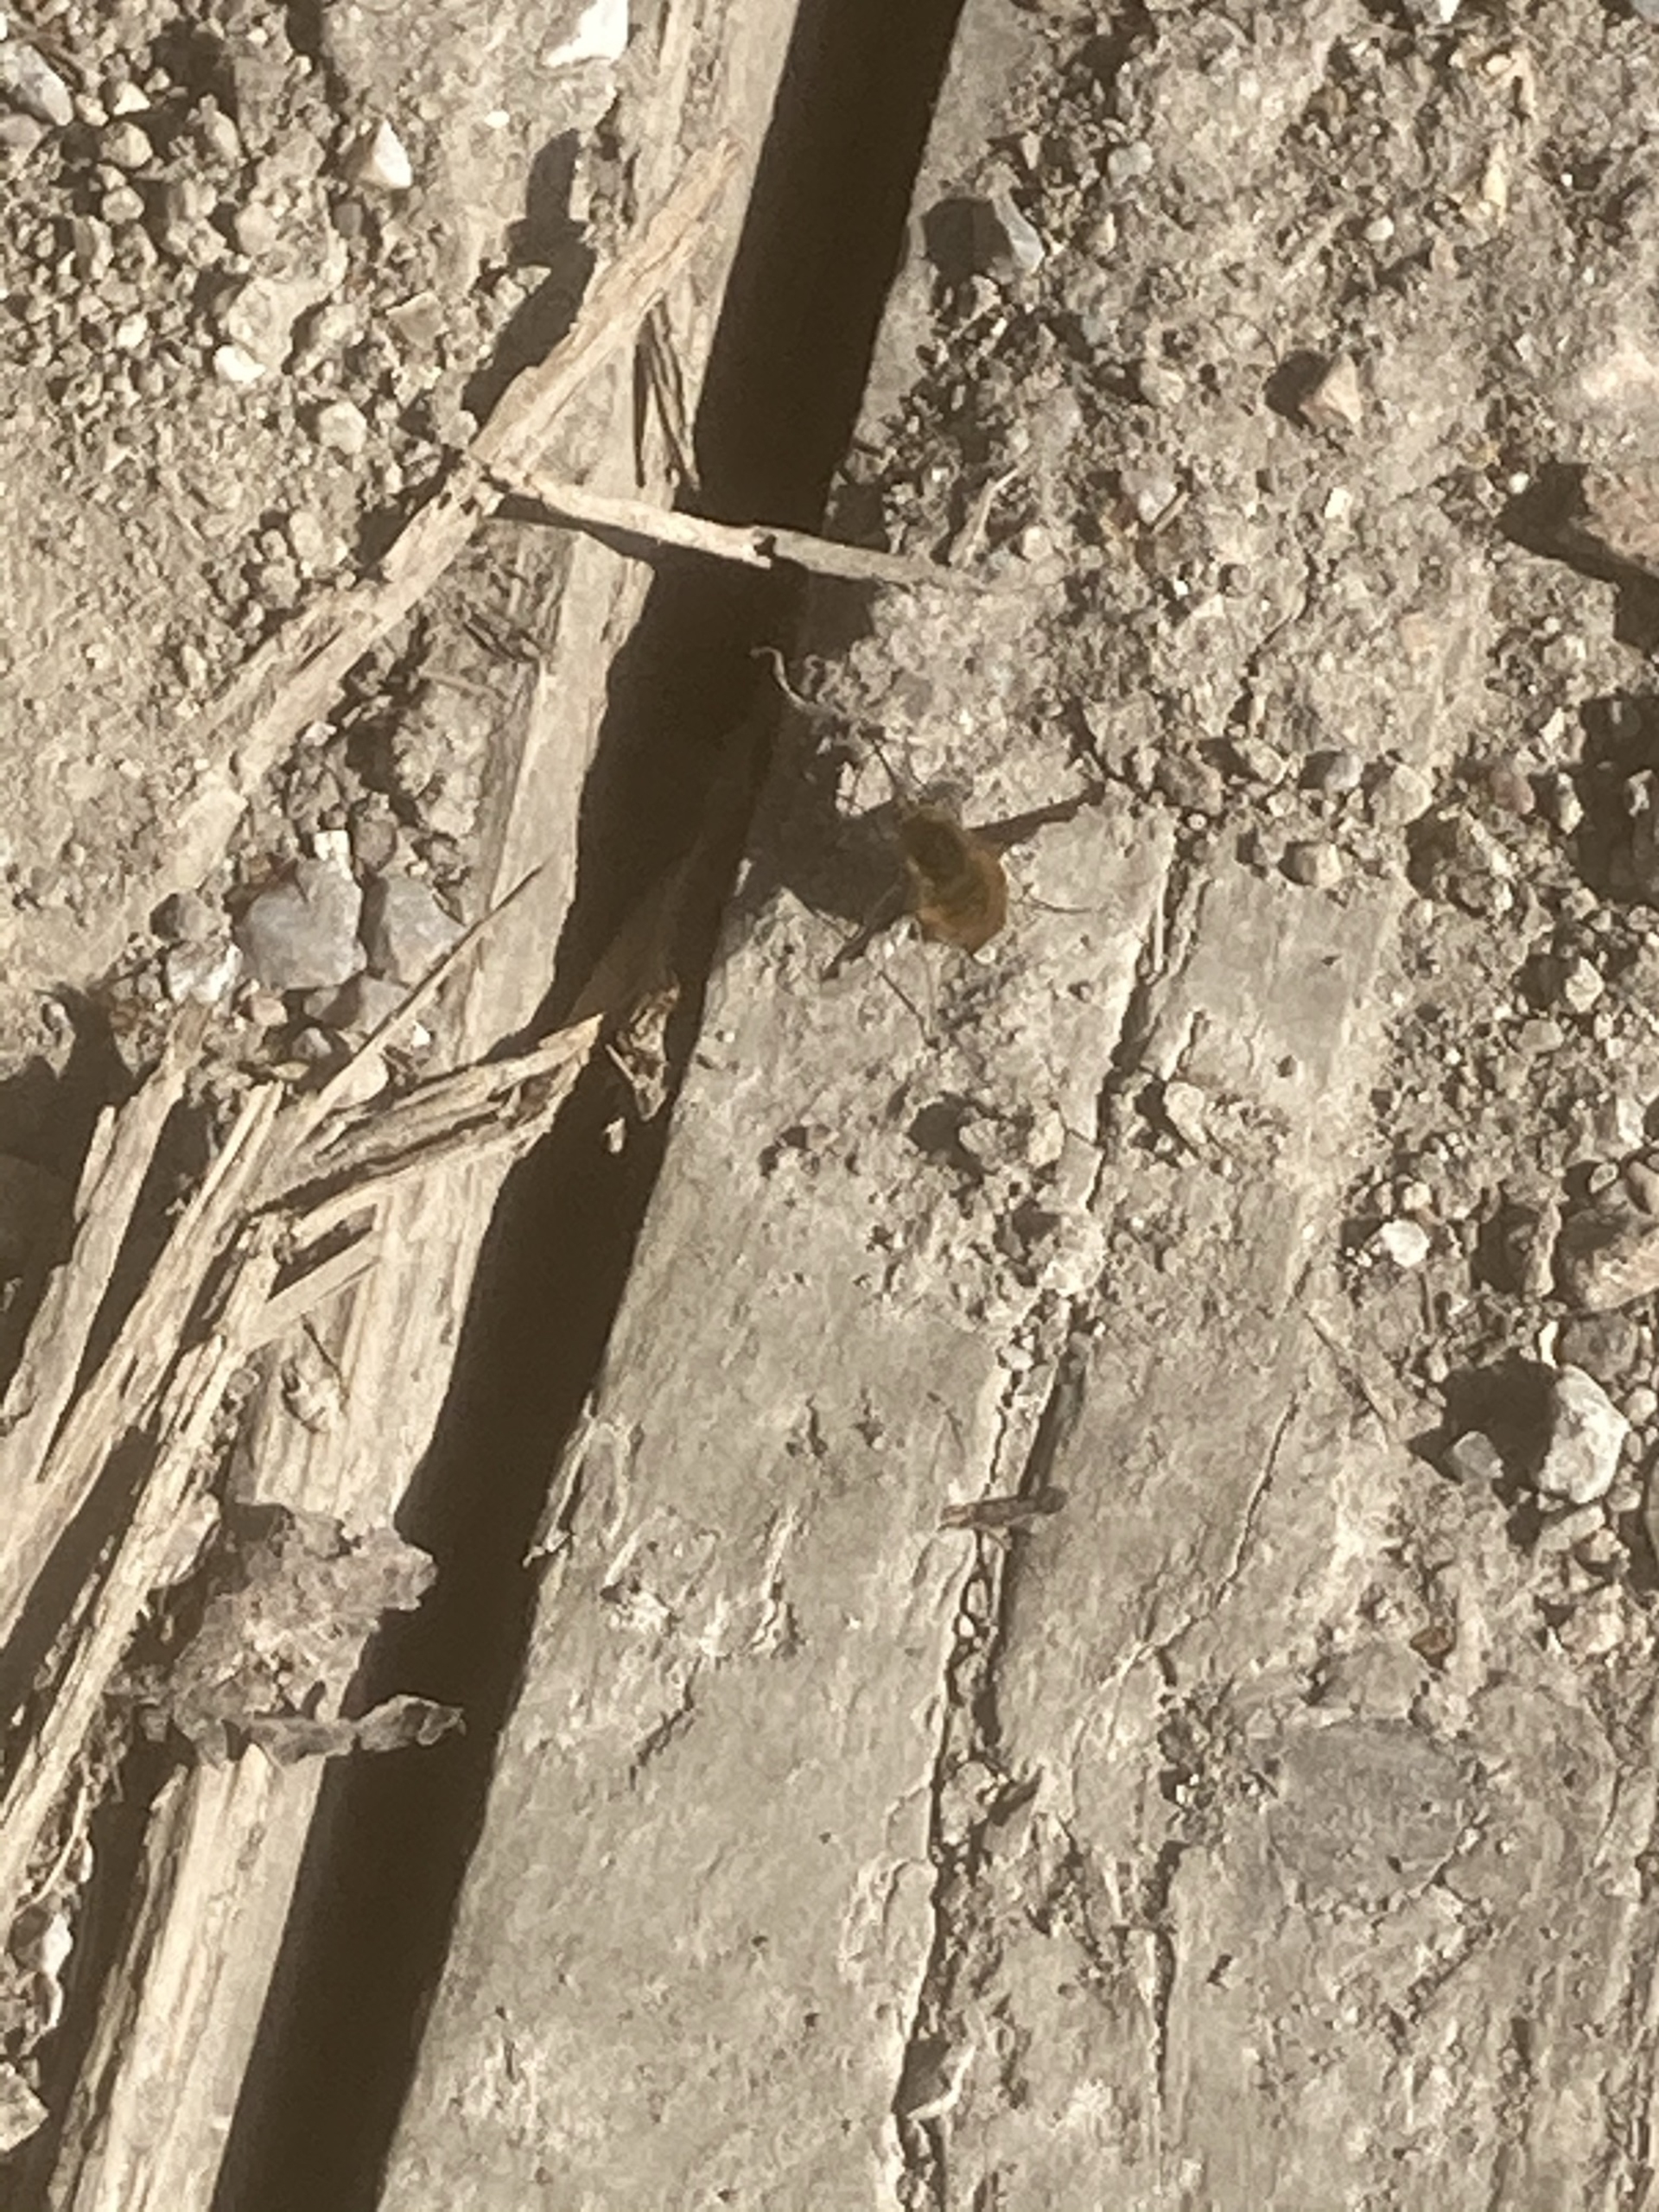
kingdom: Animalia
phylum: Arthropoda
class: Insecta
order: Diptera
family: Bombyliidae
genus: Bombylius
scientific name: Bombylius major
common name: Stor humleflue
